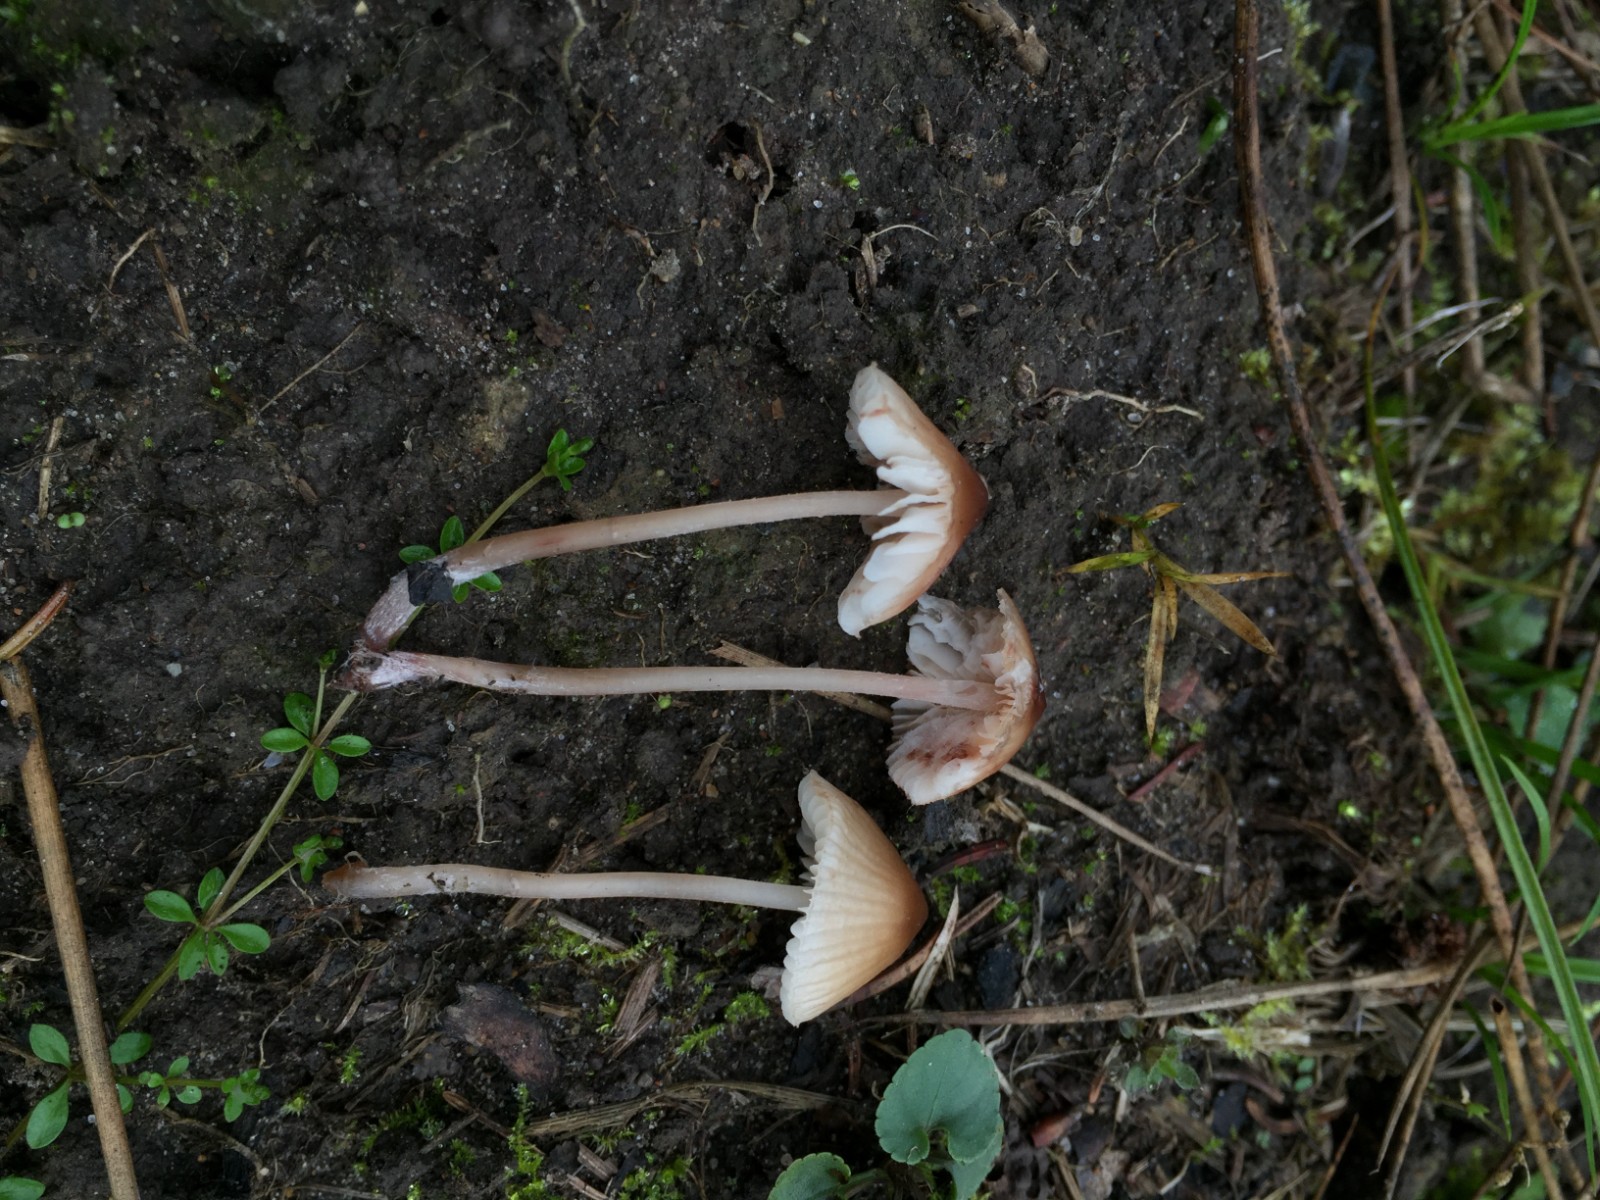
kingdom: Fungi
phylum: Basidiomycota
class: Agaricomycetes
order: Agaricales
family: Mycenaceae
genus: Mycena
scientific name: Mycena zephirus
